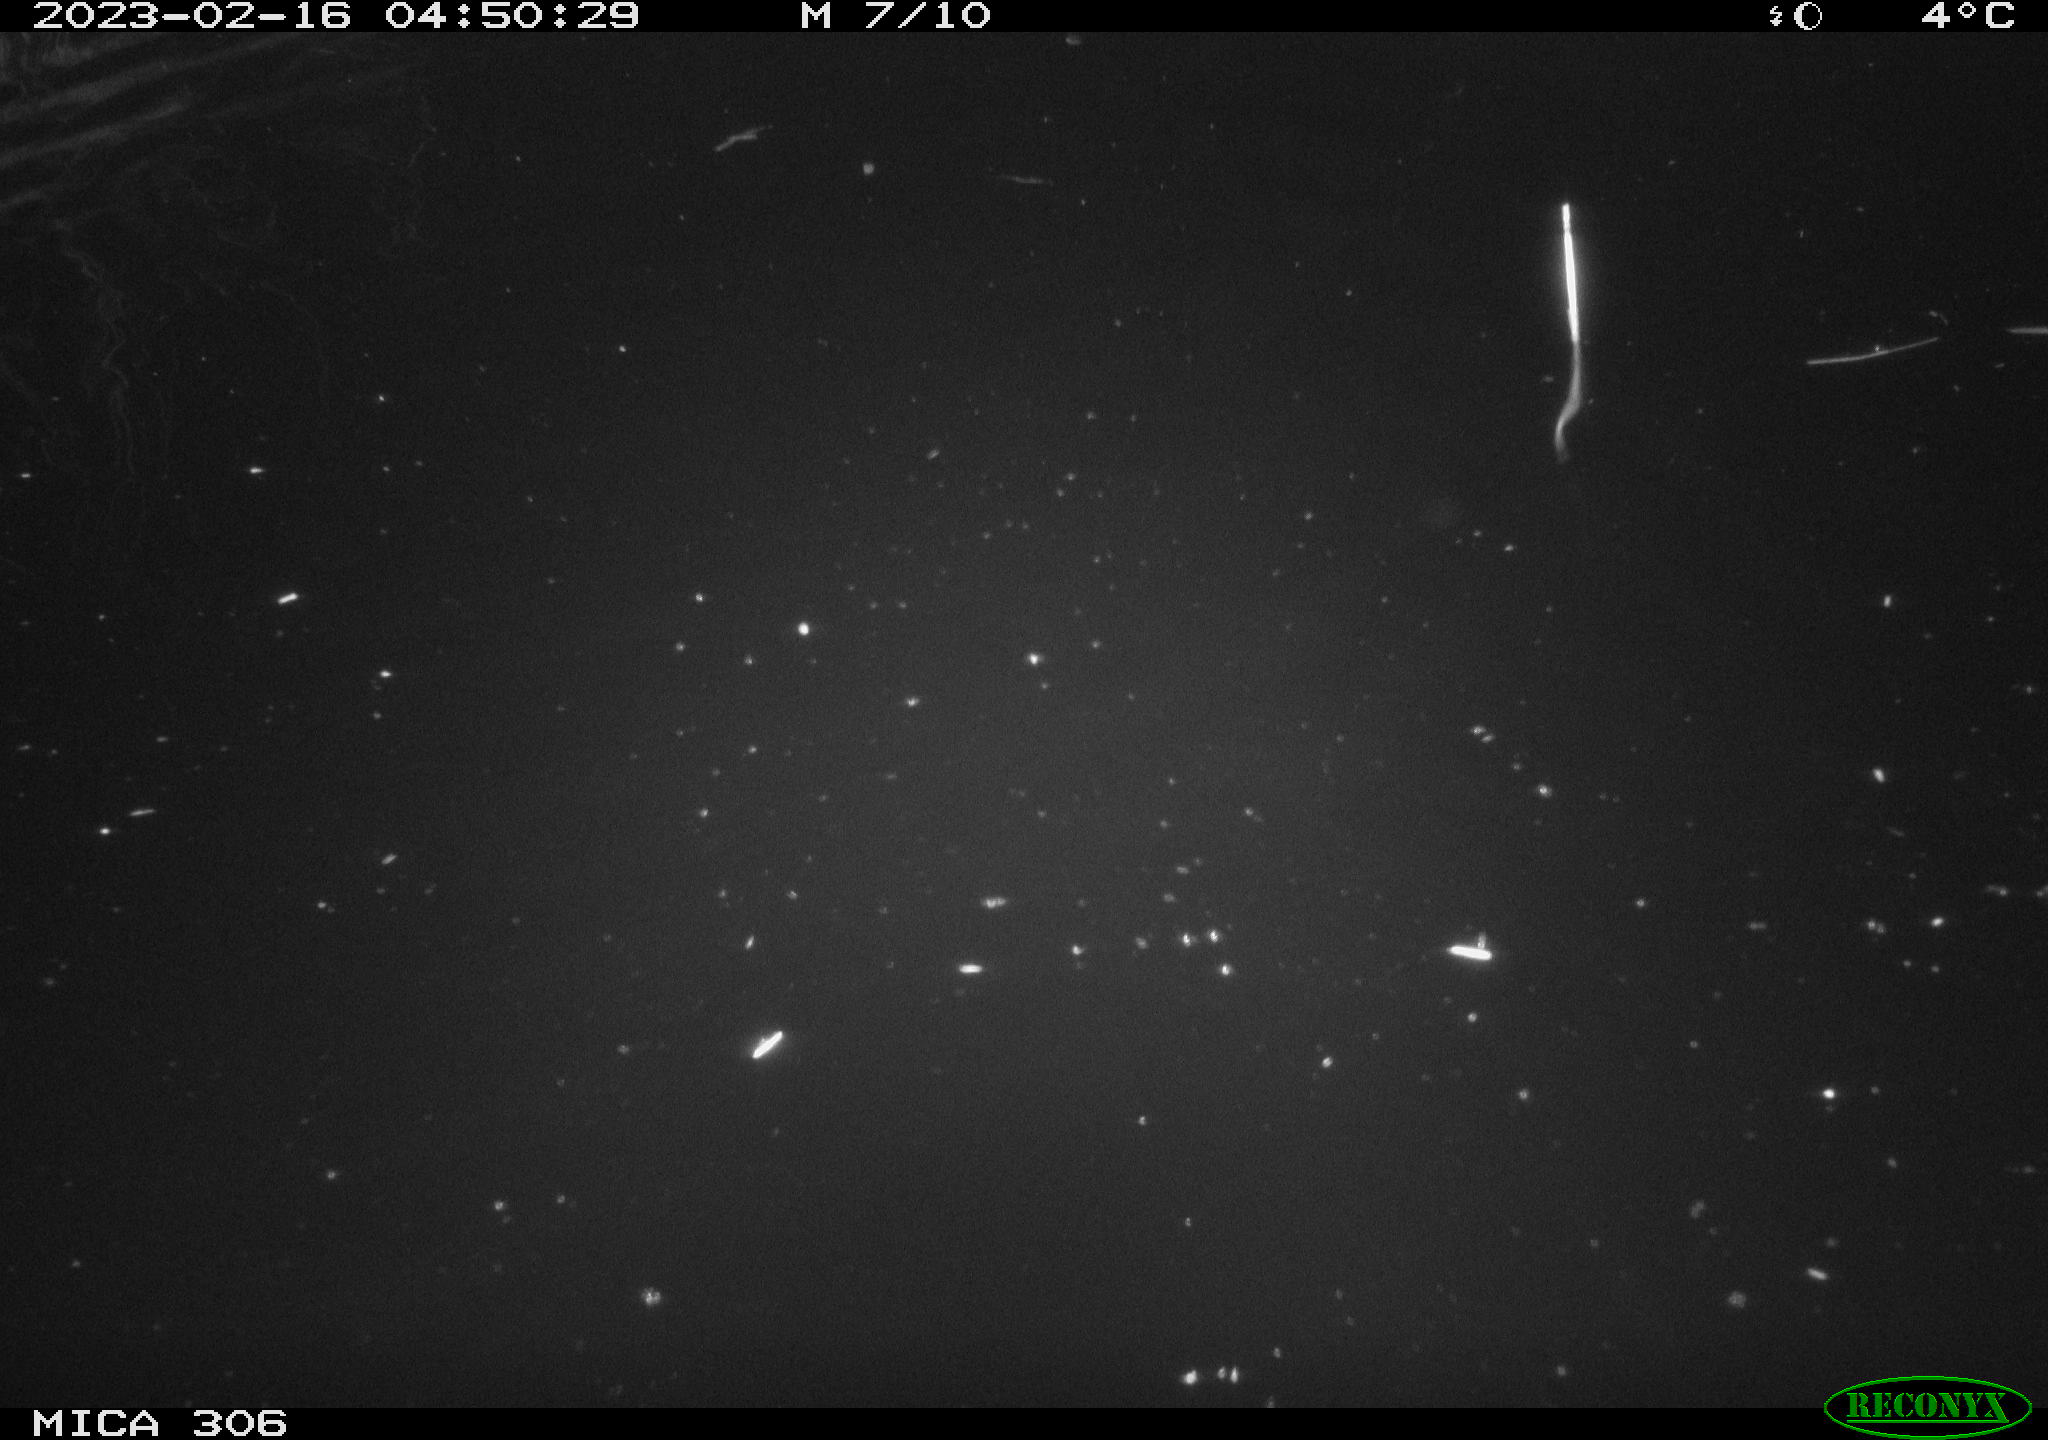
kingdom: Animalia
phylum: Chordata
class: Mammalia
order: Rodentia
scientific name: Rodentia
